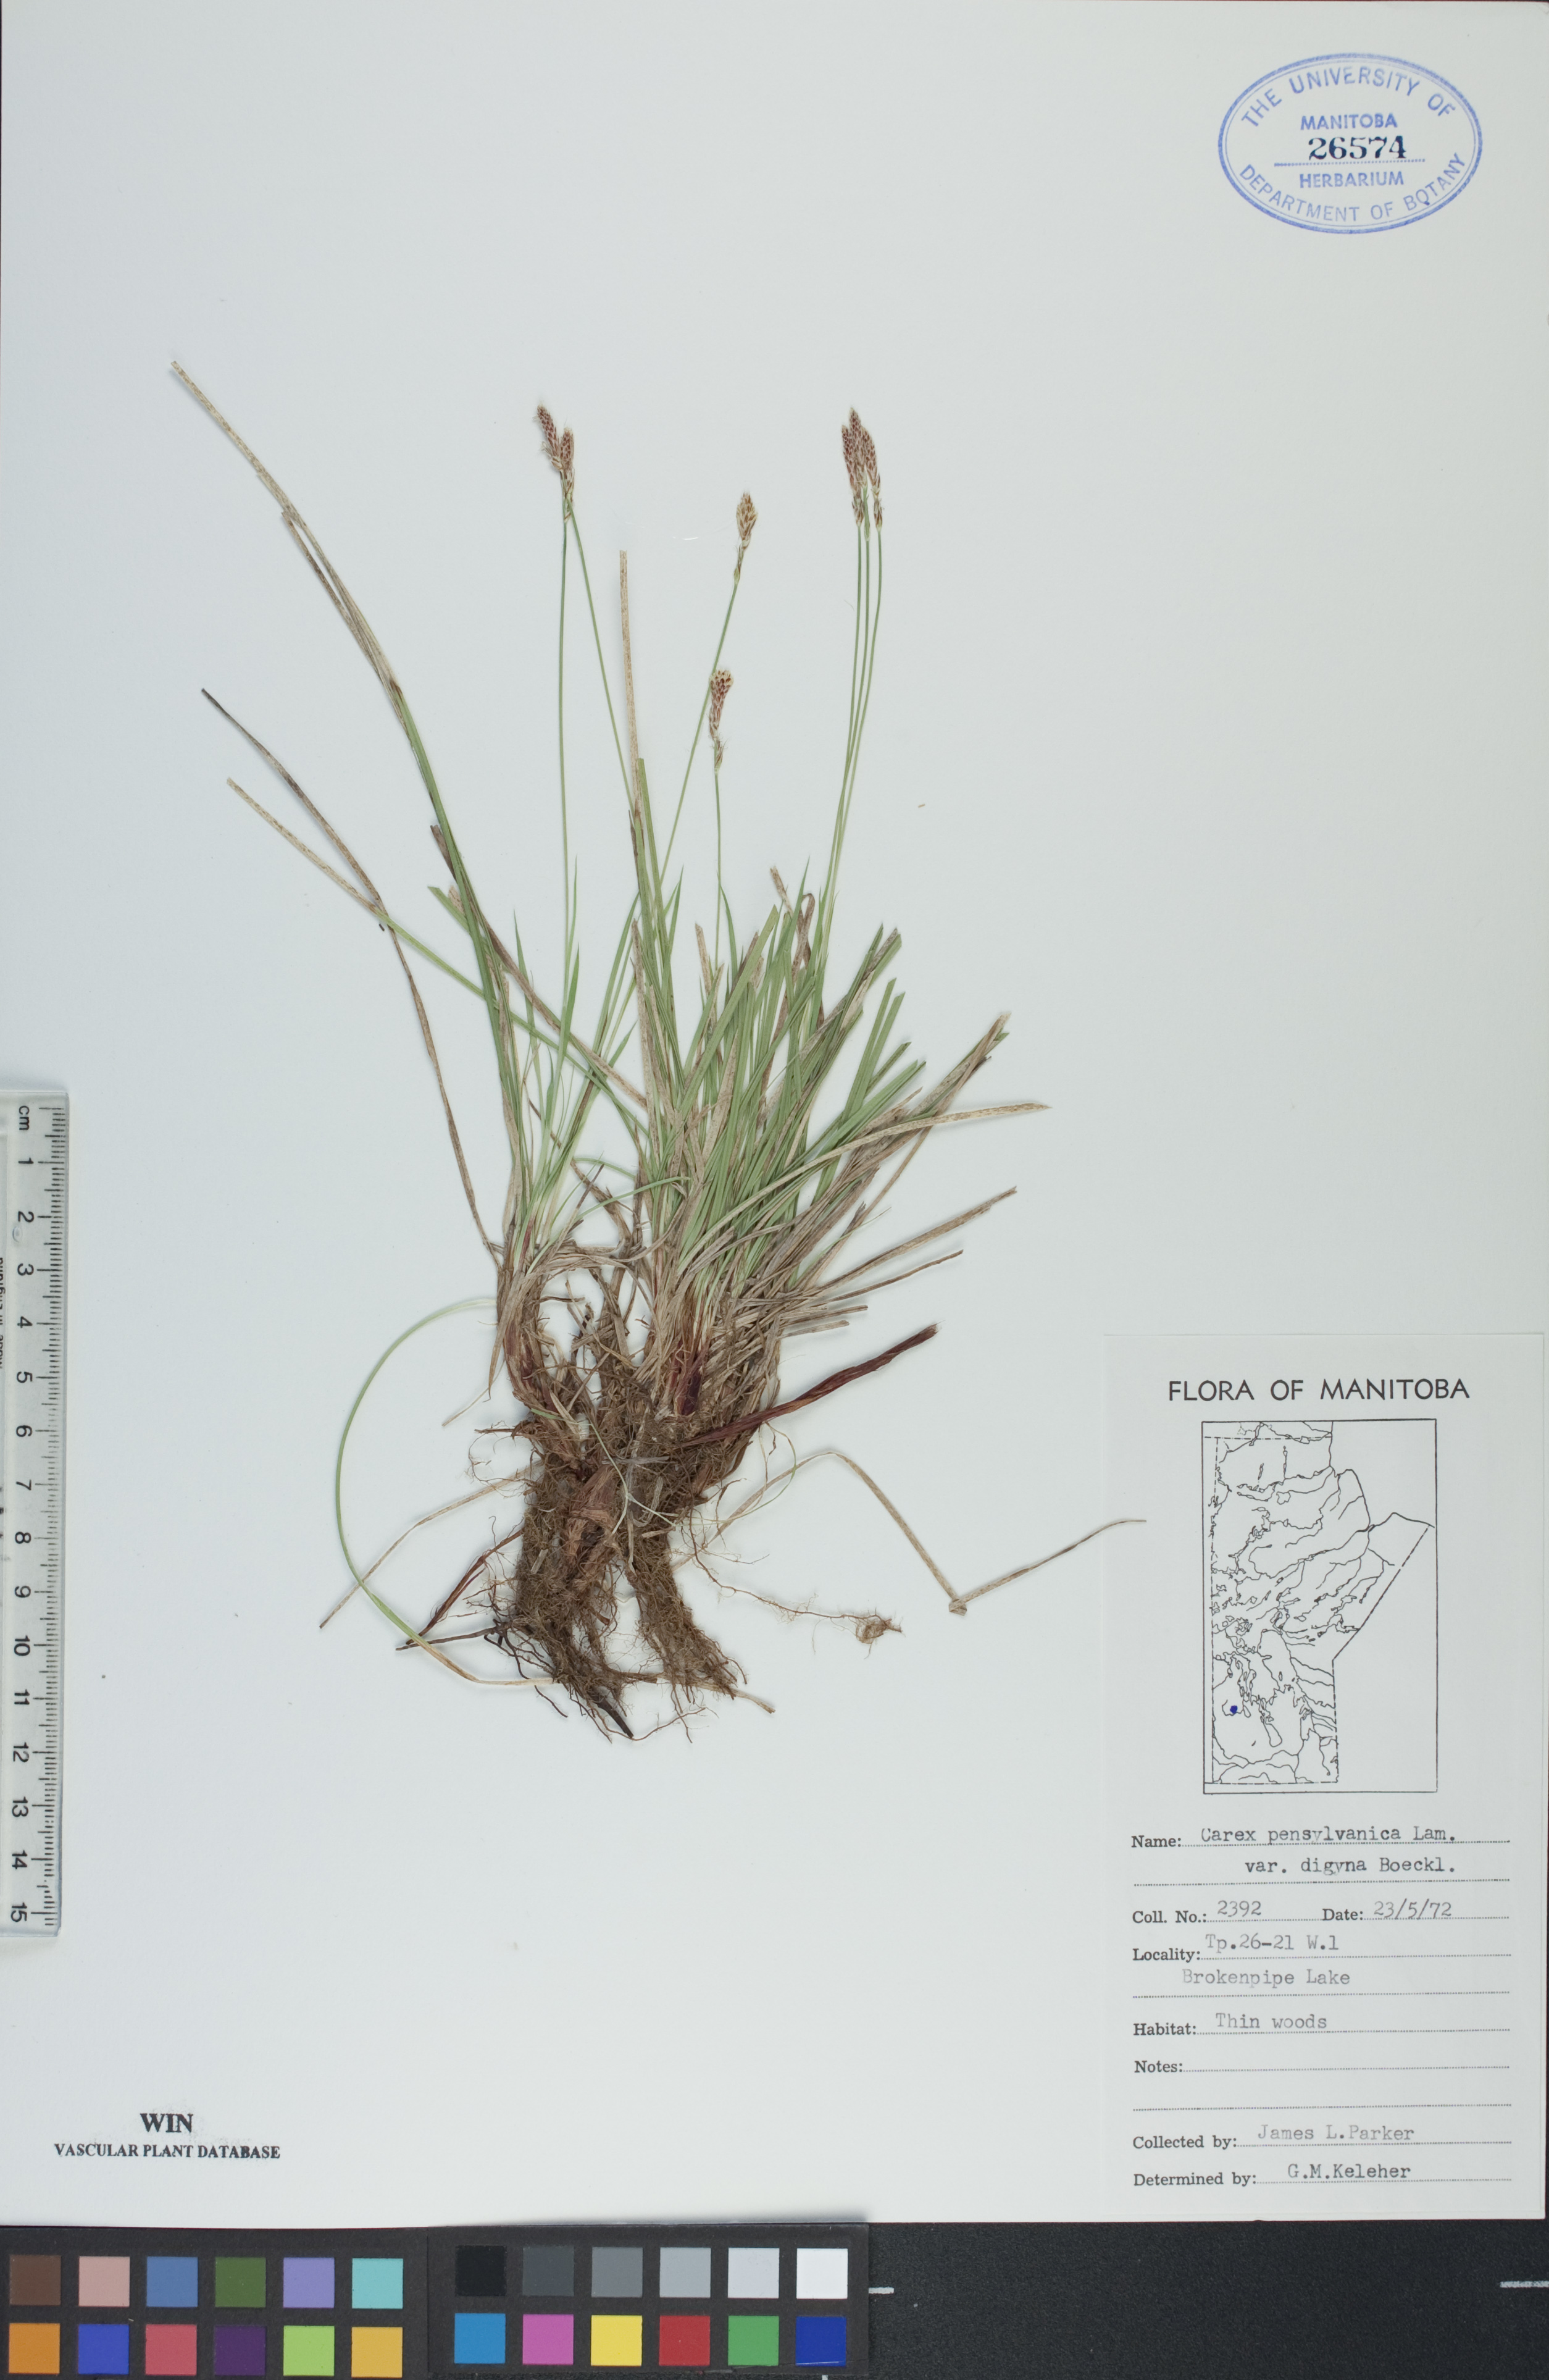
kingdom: Plantae
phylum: Tracheophyta
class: Liliopsida
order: Poales
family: Cyperaceae
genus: Carex
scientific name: Carex pensylvanica
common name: Common oak sedge
